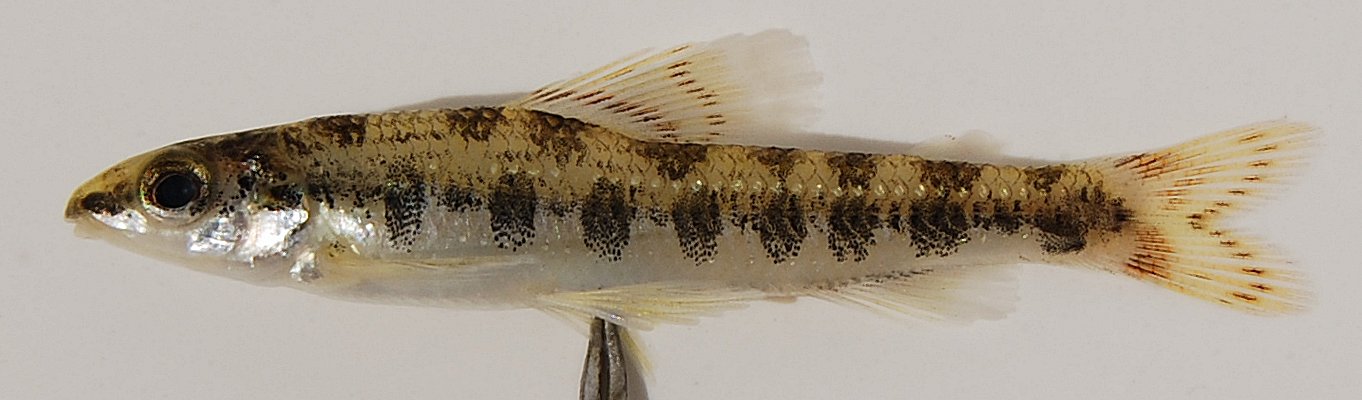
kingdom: Animalia
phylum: Chordata
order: Characiformes
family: Distichodontidae
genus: Nannocharax
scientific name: Nannocharax macropterus
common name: Broad-barred citharine
